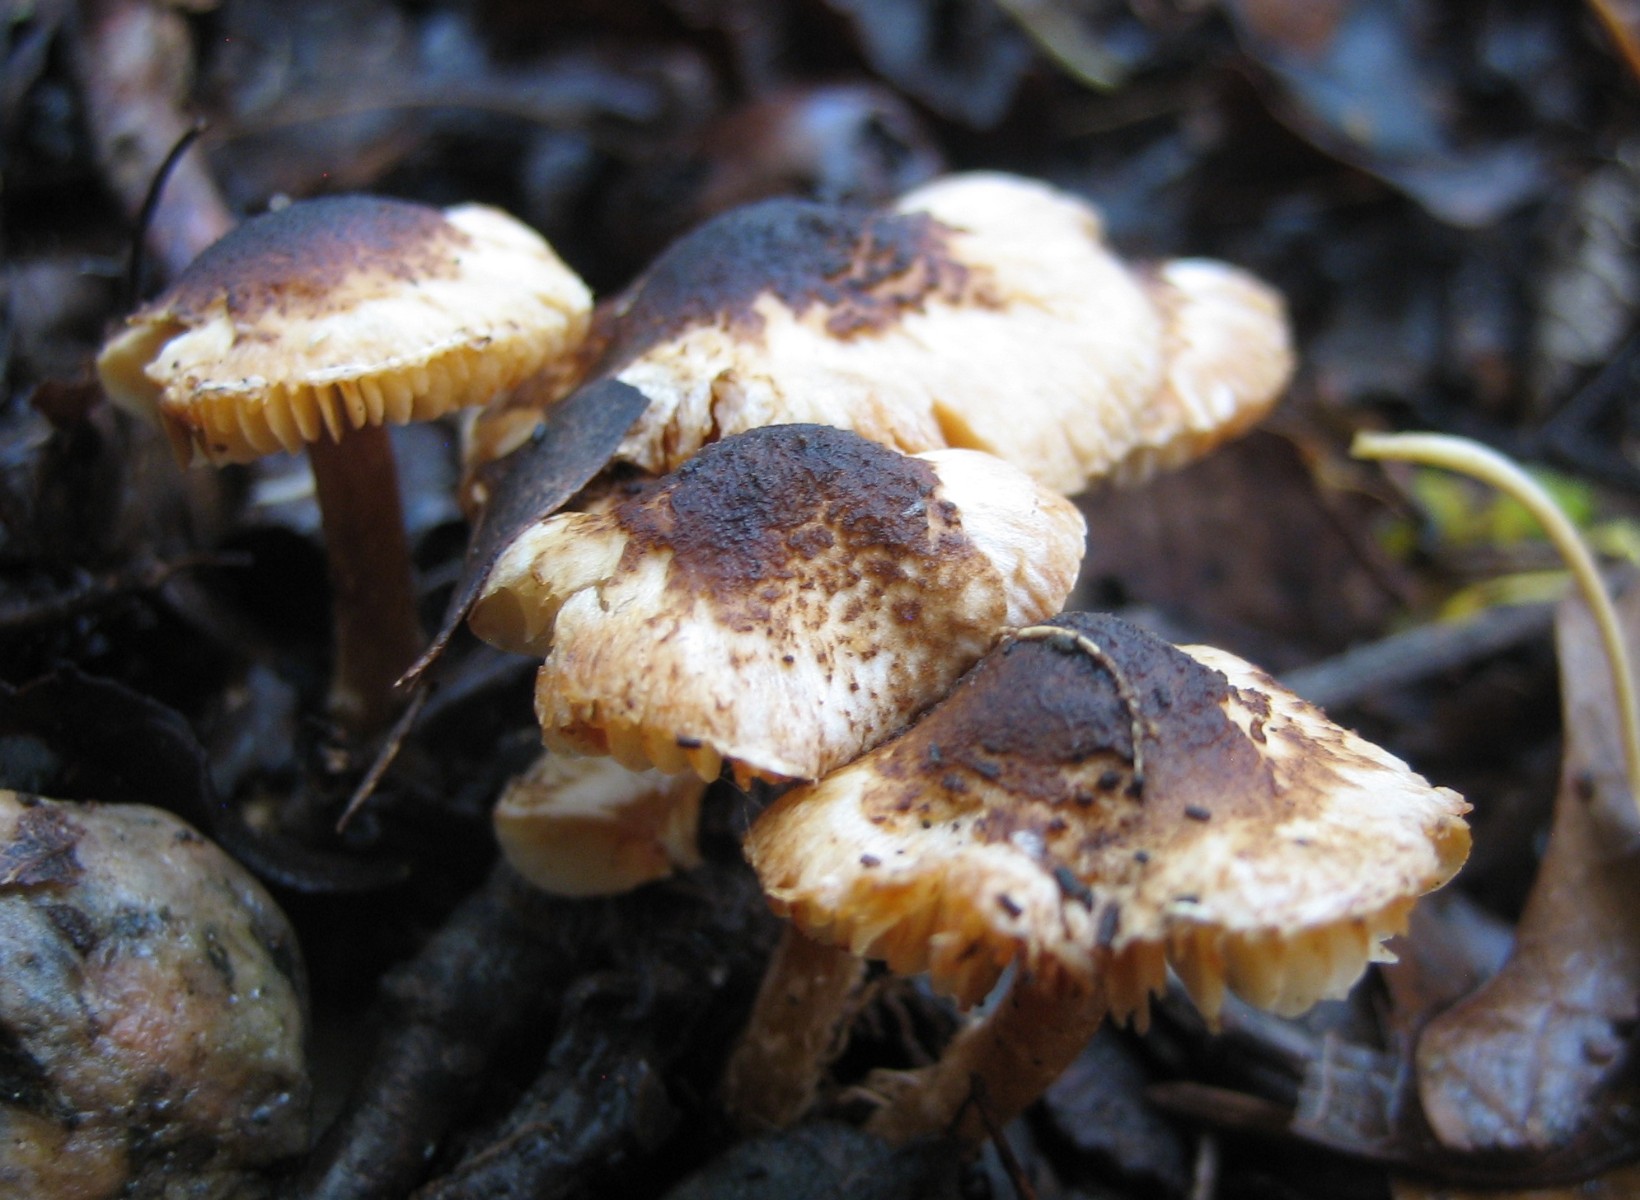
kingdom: Fungi
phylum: Basidiomycota
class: Agaricomycetes
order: Agaricales
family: Agaricaceae
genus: Lepiota
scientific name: Lepiota castanea
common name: kastaniebrun parasolhat
